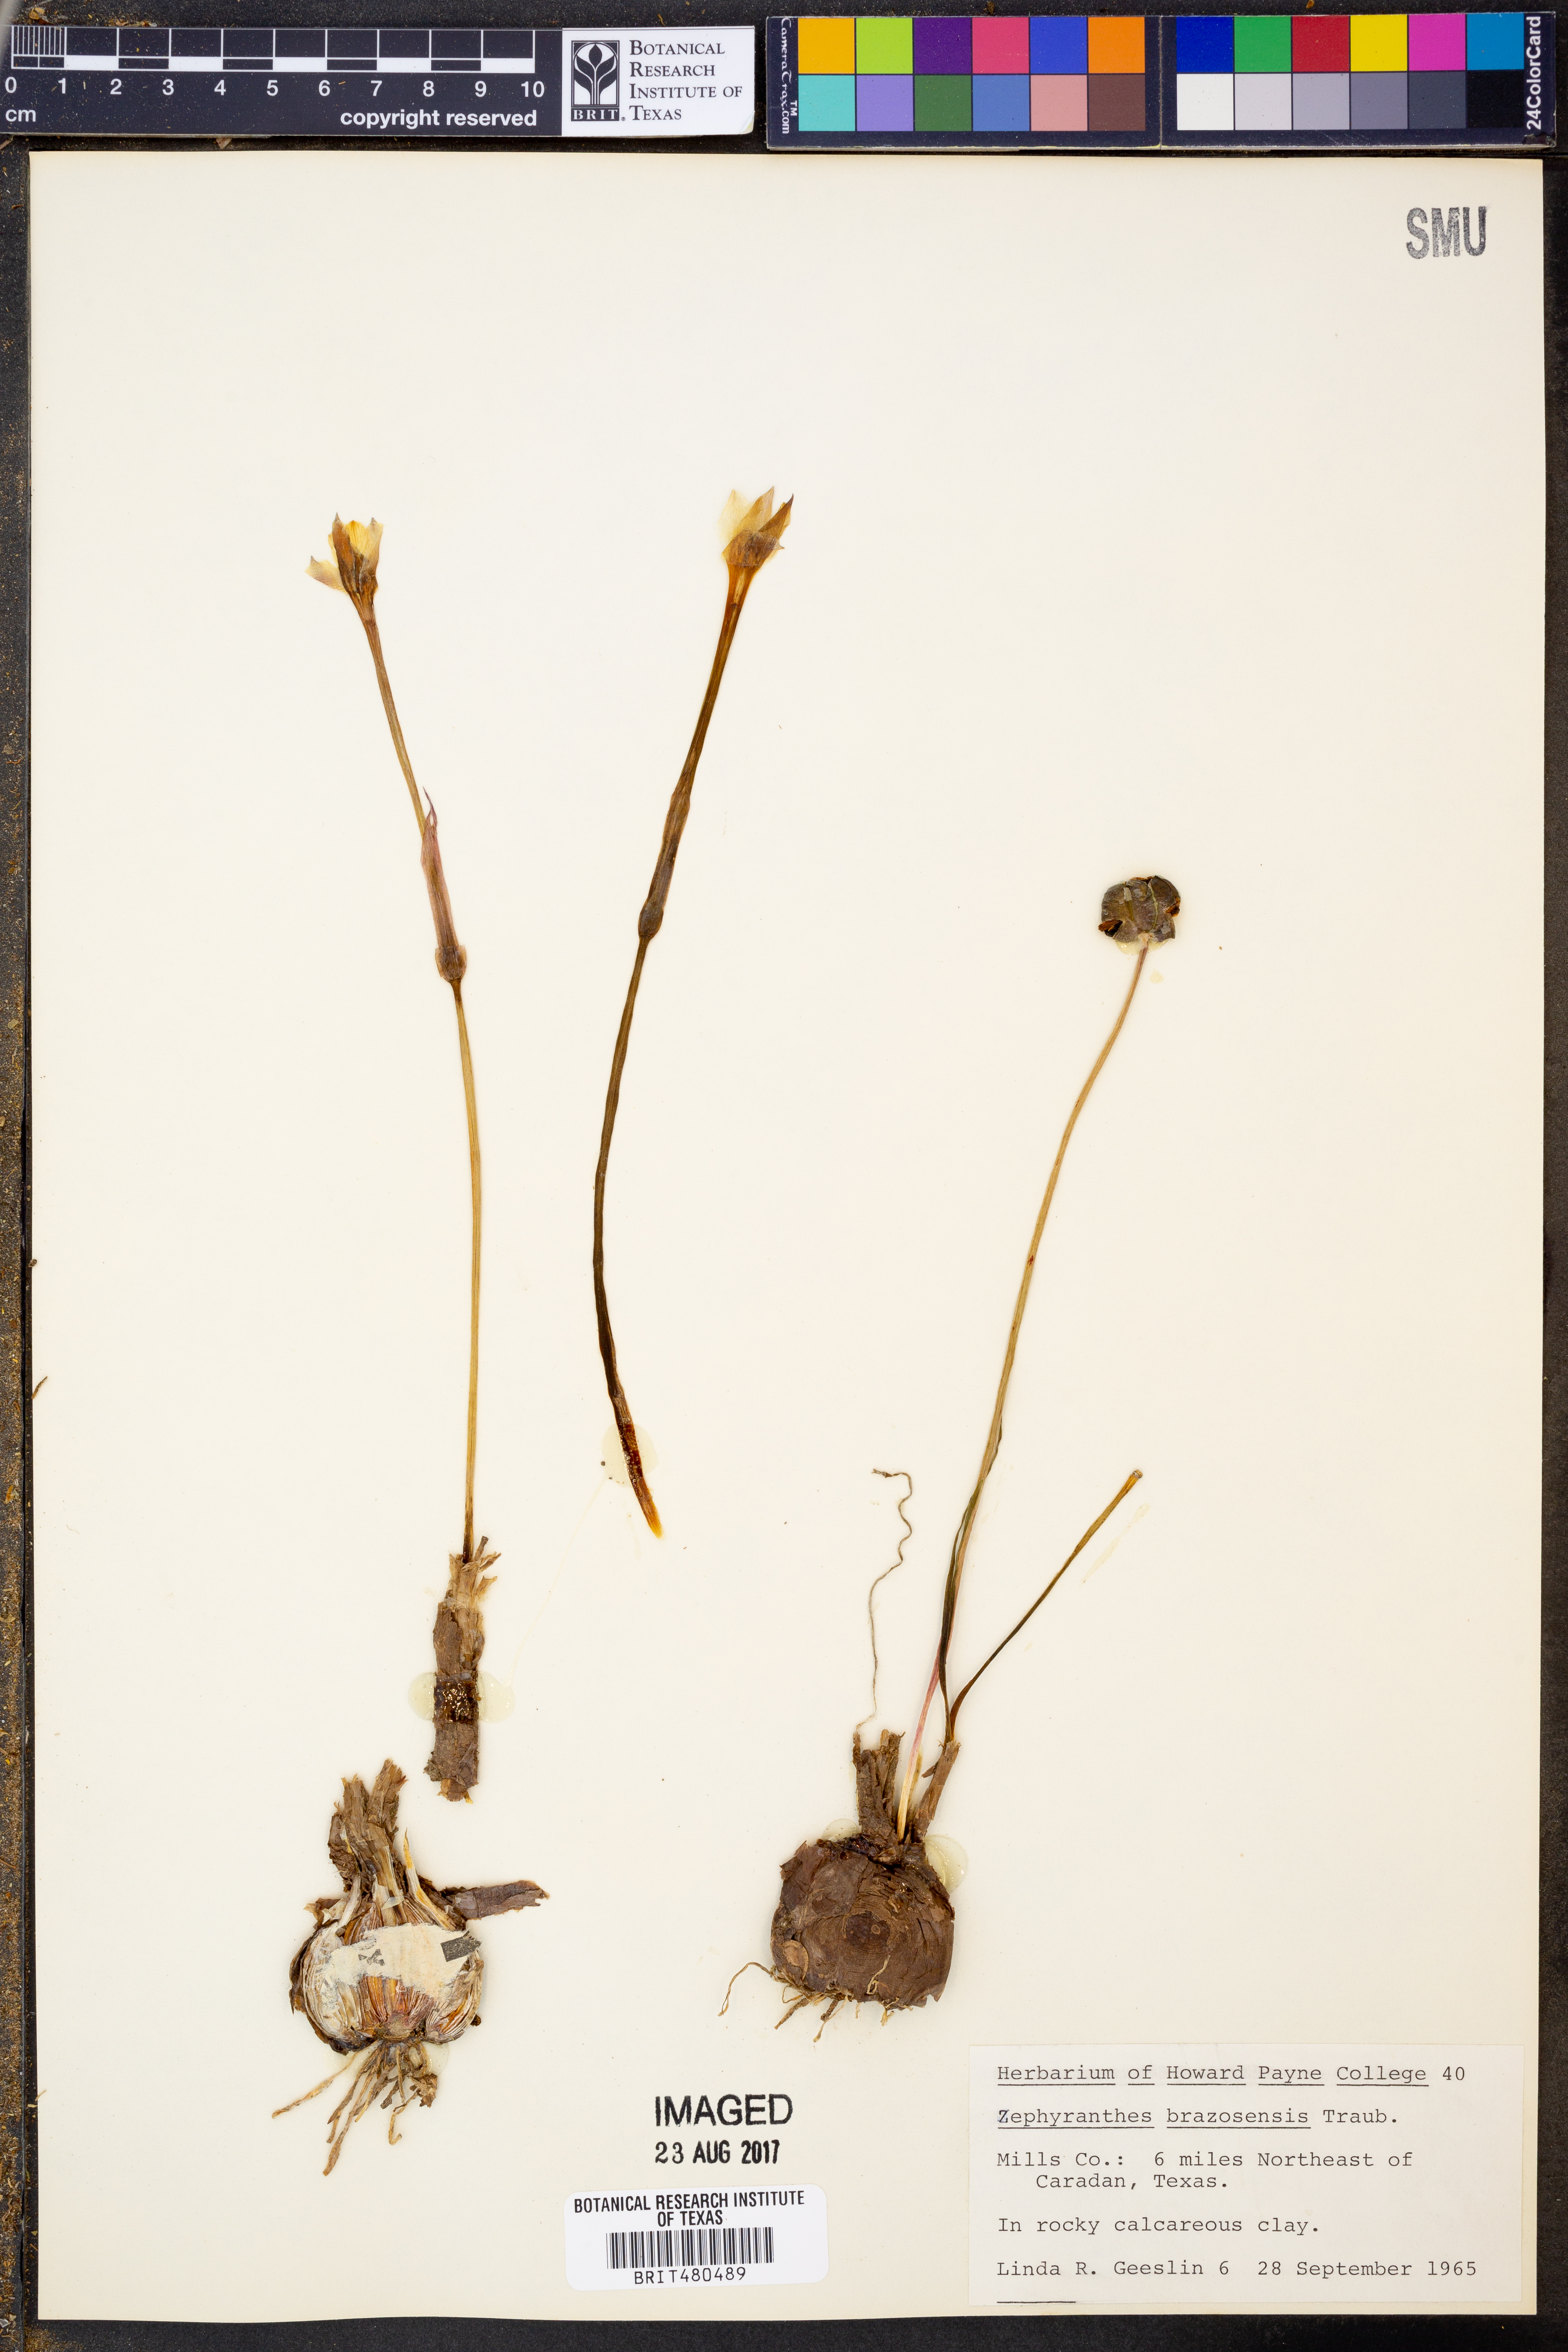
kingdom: Plantae
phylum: Tracheophyta
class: Liliopsida
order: Asparagales
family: Amaryllidaceae
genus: Zephyranthes
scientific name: Zephyranthes chlorosolen
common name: Evening rain-lily
